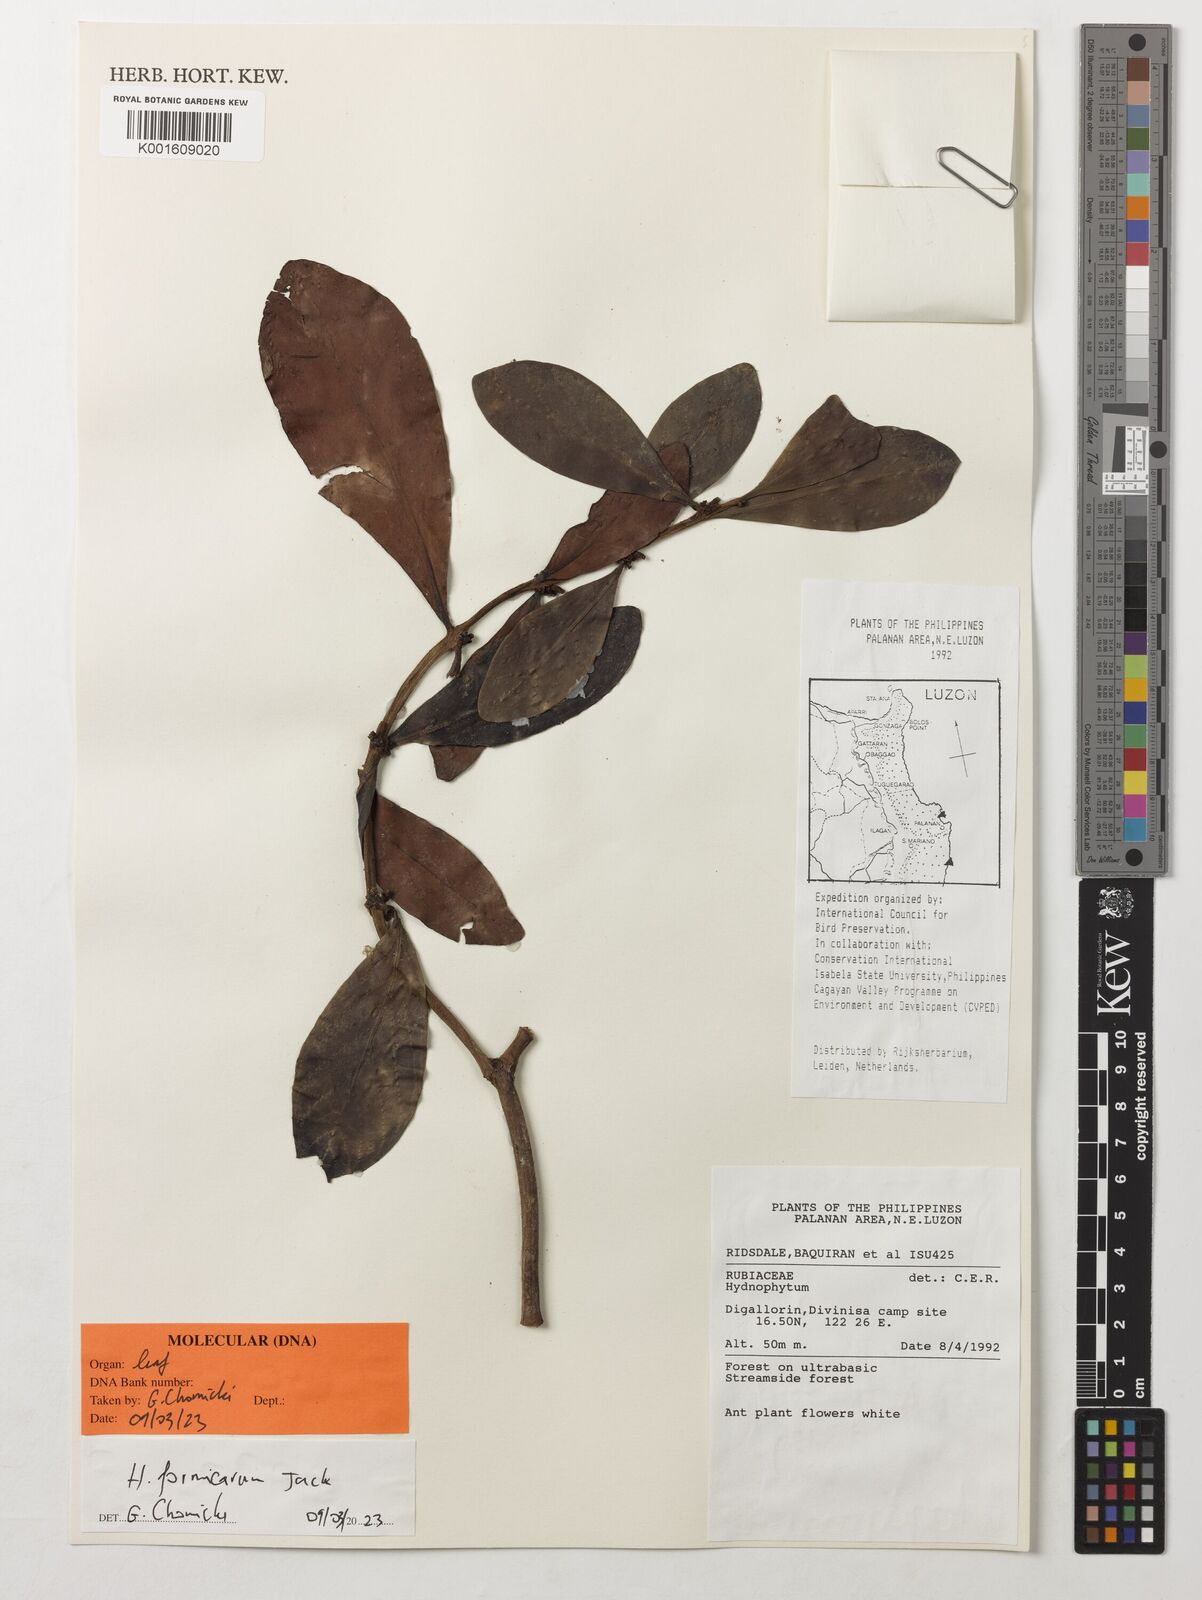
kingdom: Plantae
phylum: Tracheophyta
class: Magnoliopsida
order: Gentianales
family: Rubiaceae
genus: Hydnophytum
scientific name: Hydnophytum formicarum
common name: Ant plant
